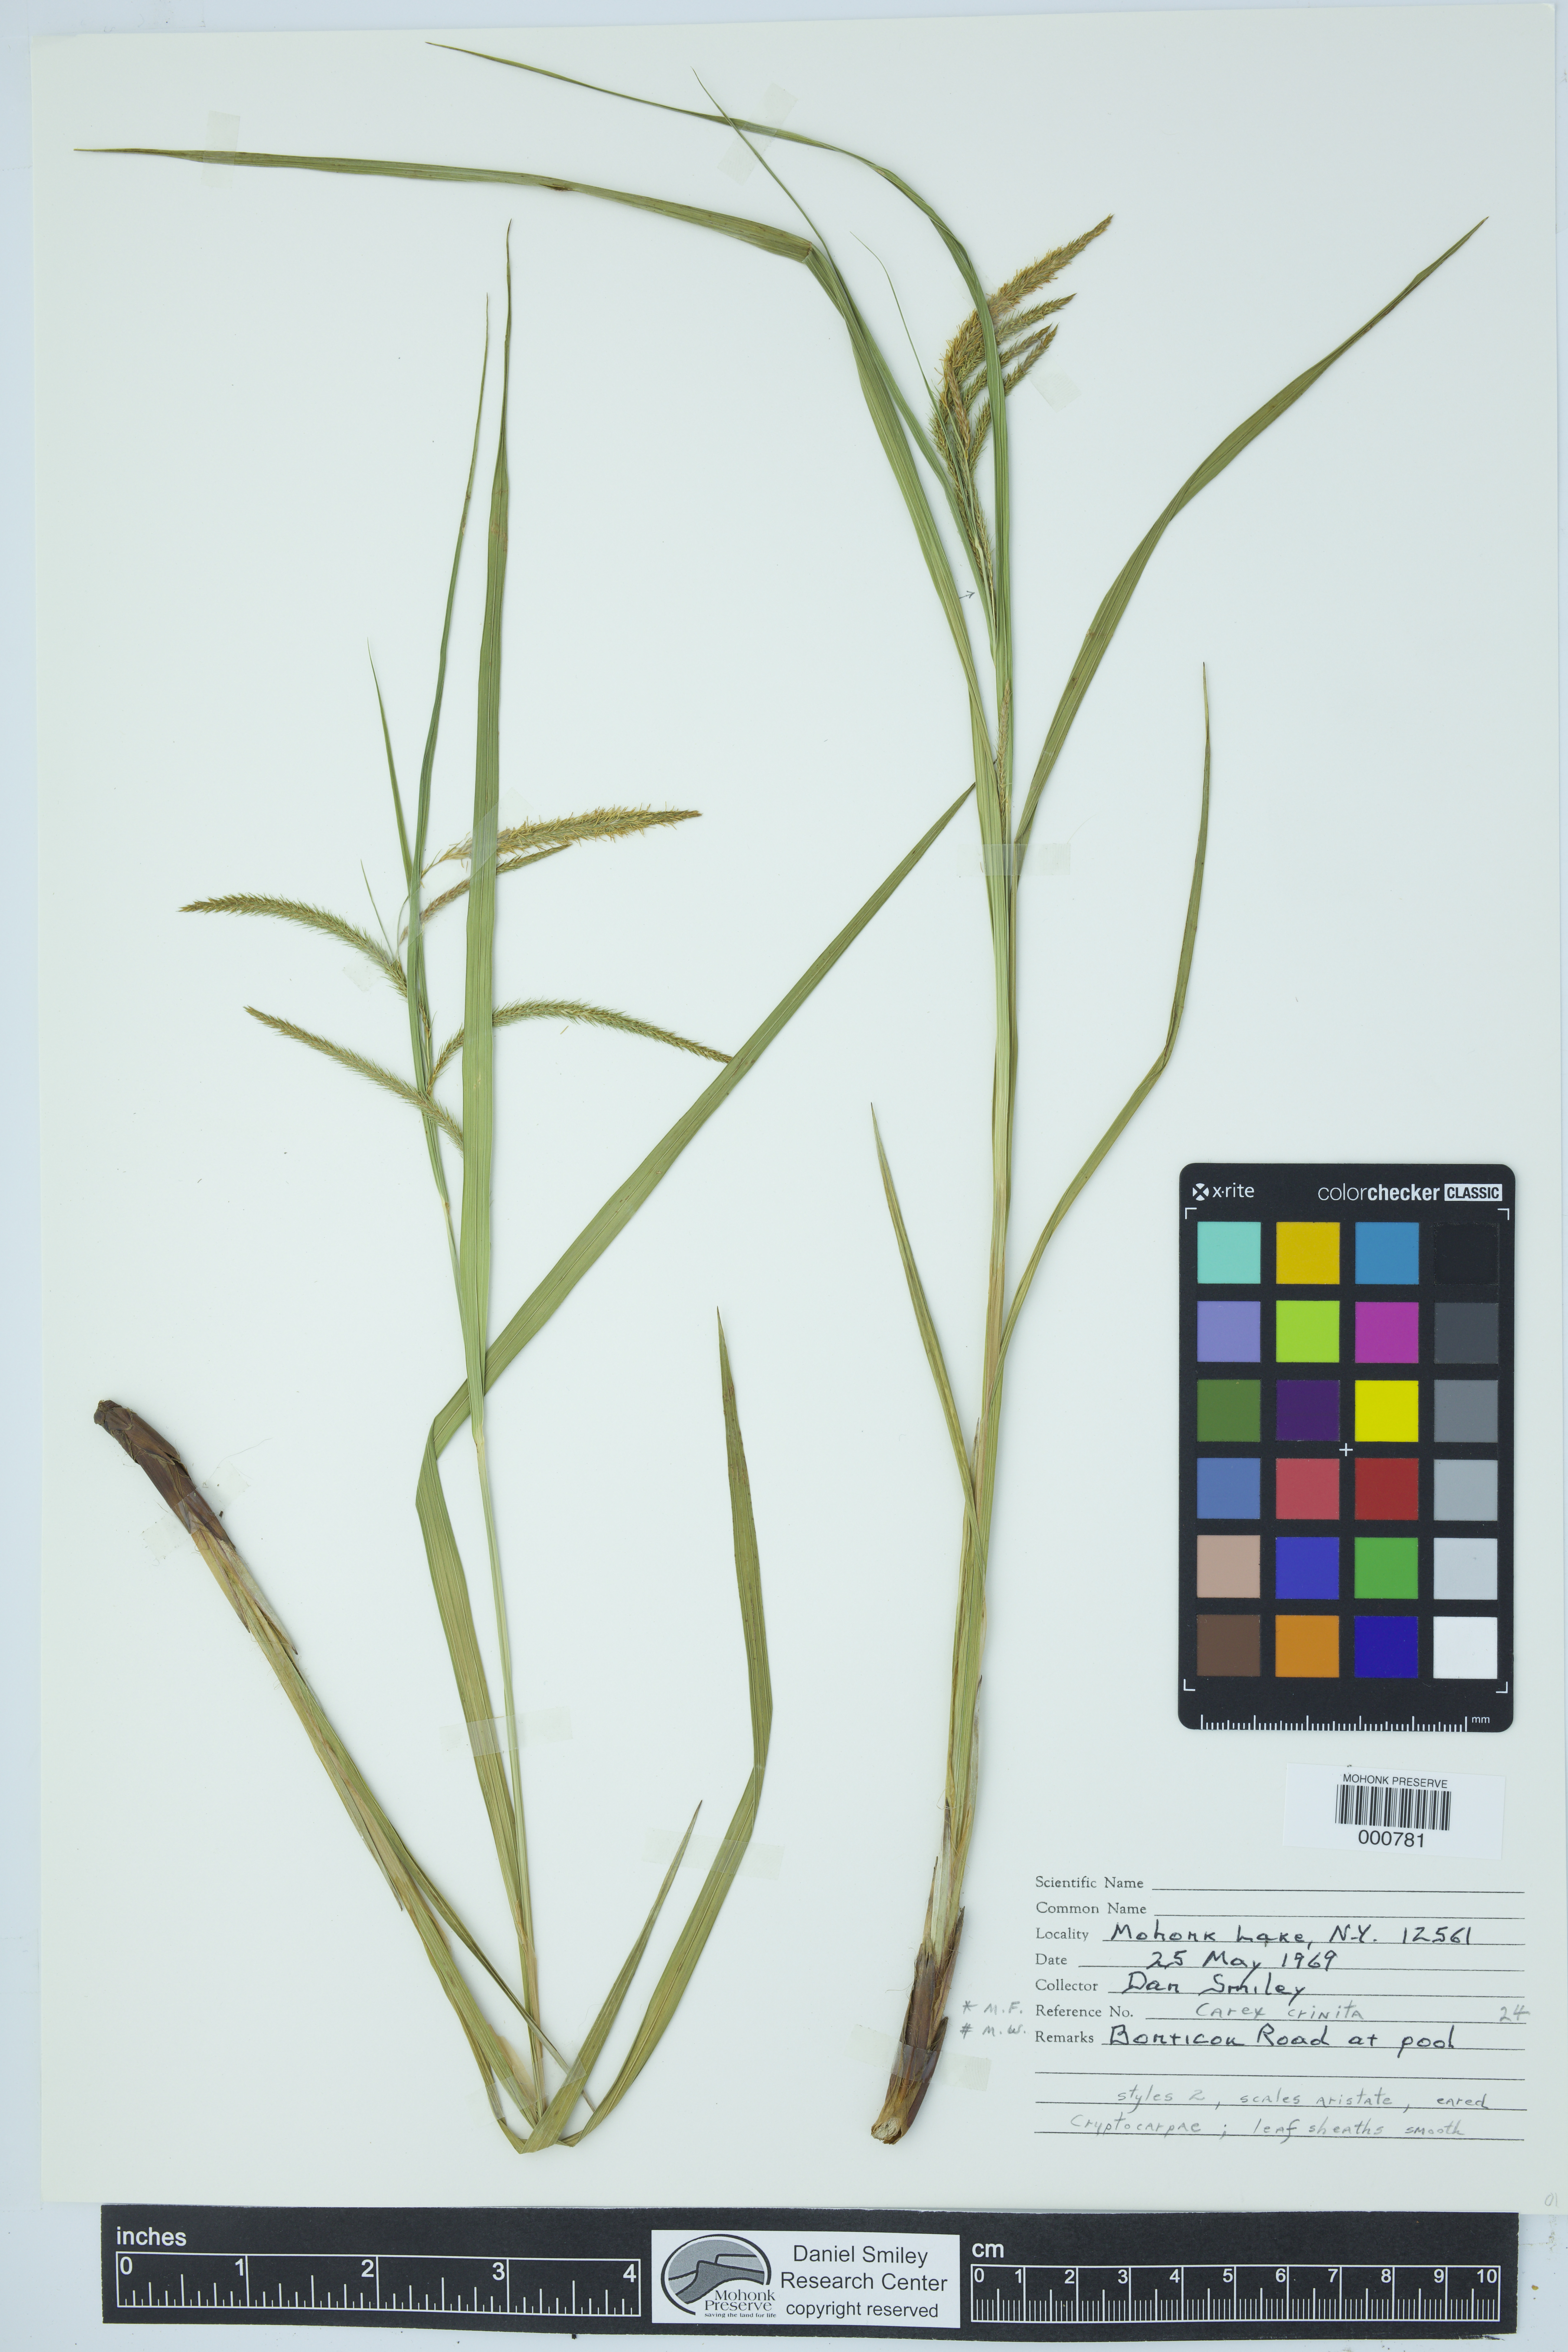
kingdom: Plantae
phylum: Tracheophyta
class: Liliopsida
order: Poales
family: Cyperaceae
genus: Carex
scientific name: Carex crinita
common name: Fringed sedge
